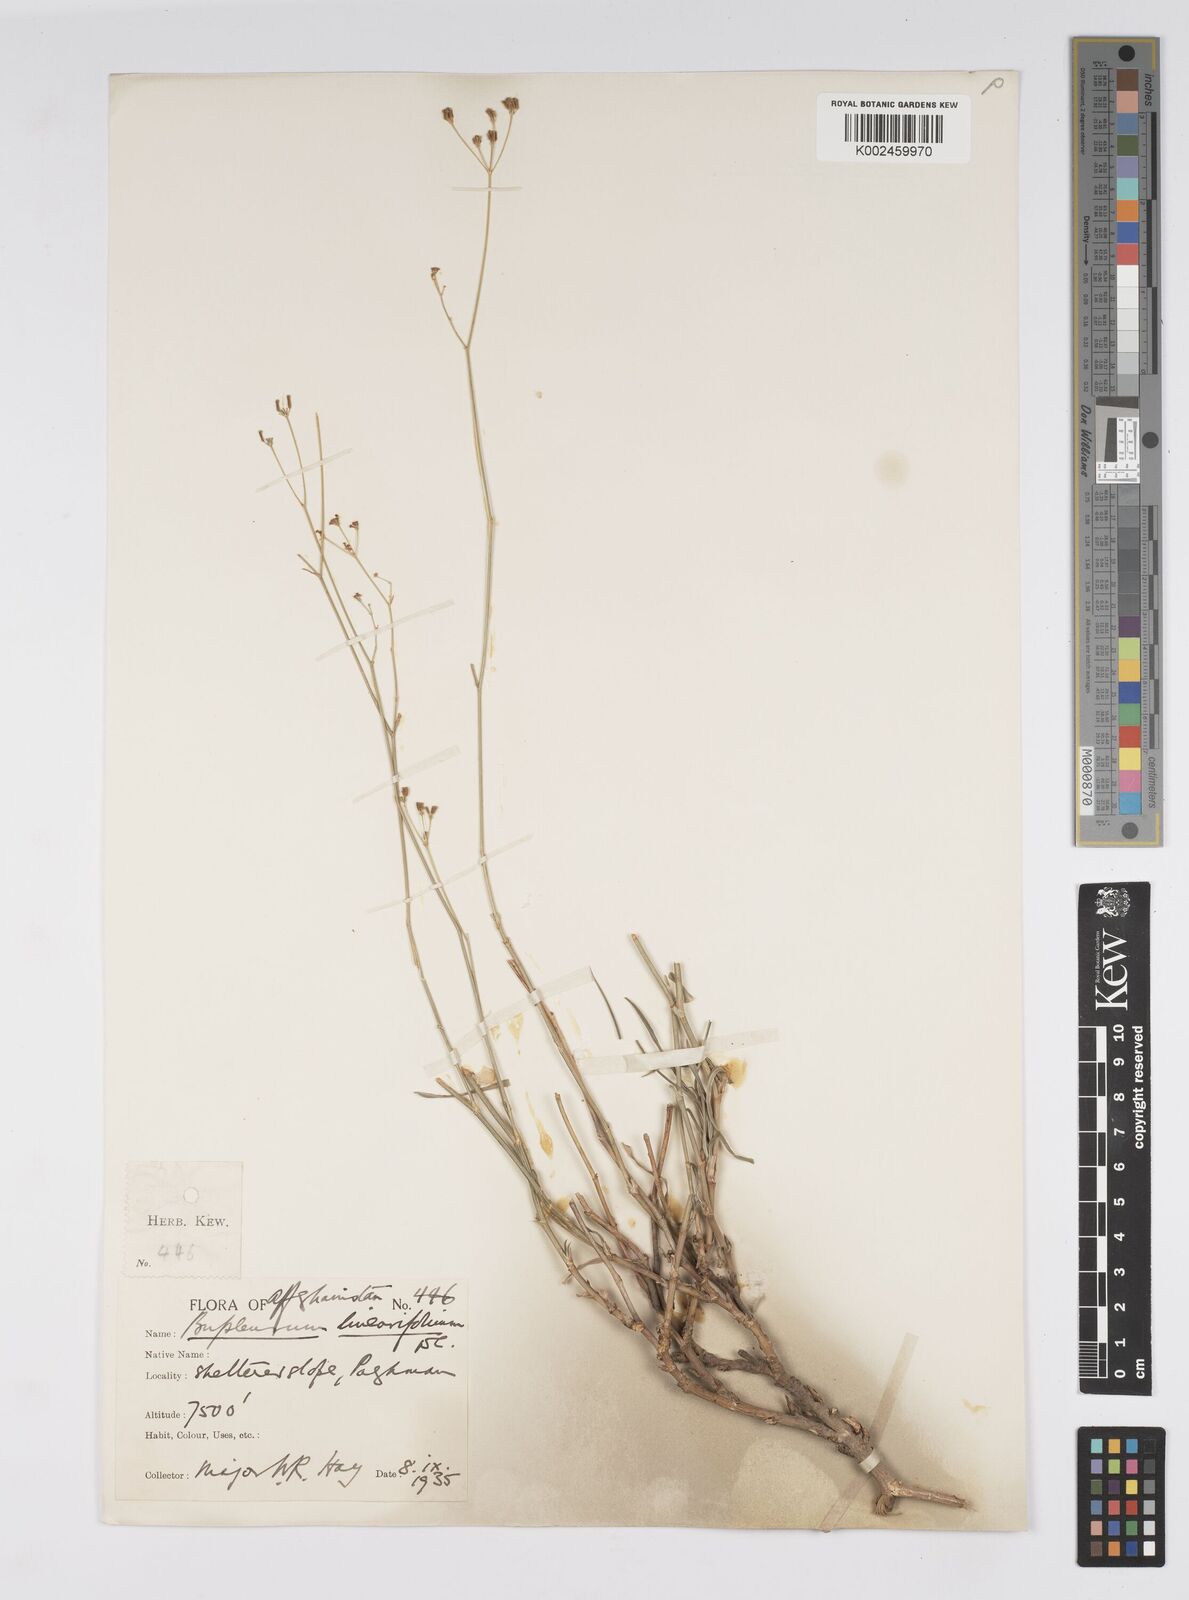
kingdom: Plantae
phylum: Tracheophyta
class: Magnoliopsida
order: Apiales
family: Apiaceae
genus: Bupleurum
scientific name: Bupleurum falcatum
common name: Sickle-leaved hare's-ear
